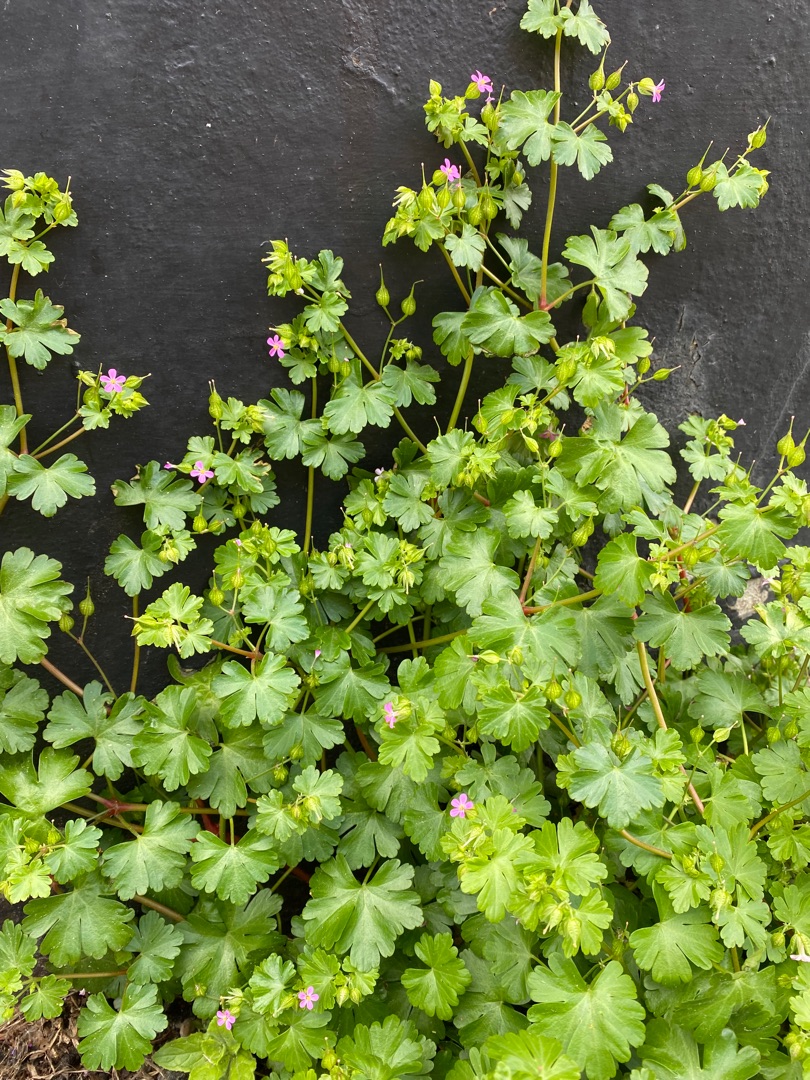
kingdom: Plantae
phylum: Tracheophyta
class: Magnoliopsida
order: Geraniales
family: Geraniaceae
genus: Geranium
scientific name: Geranium lucidum
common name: Skinnende storkenæb
